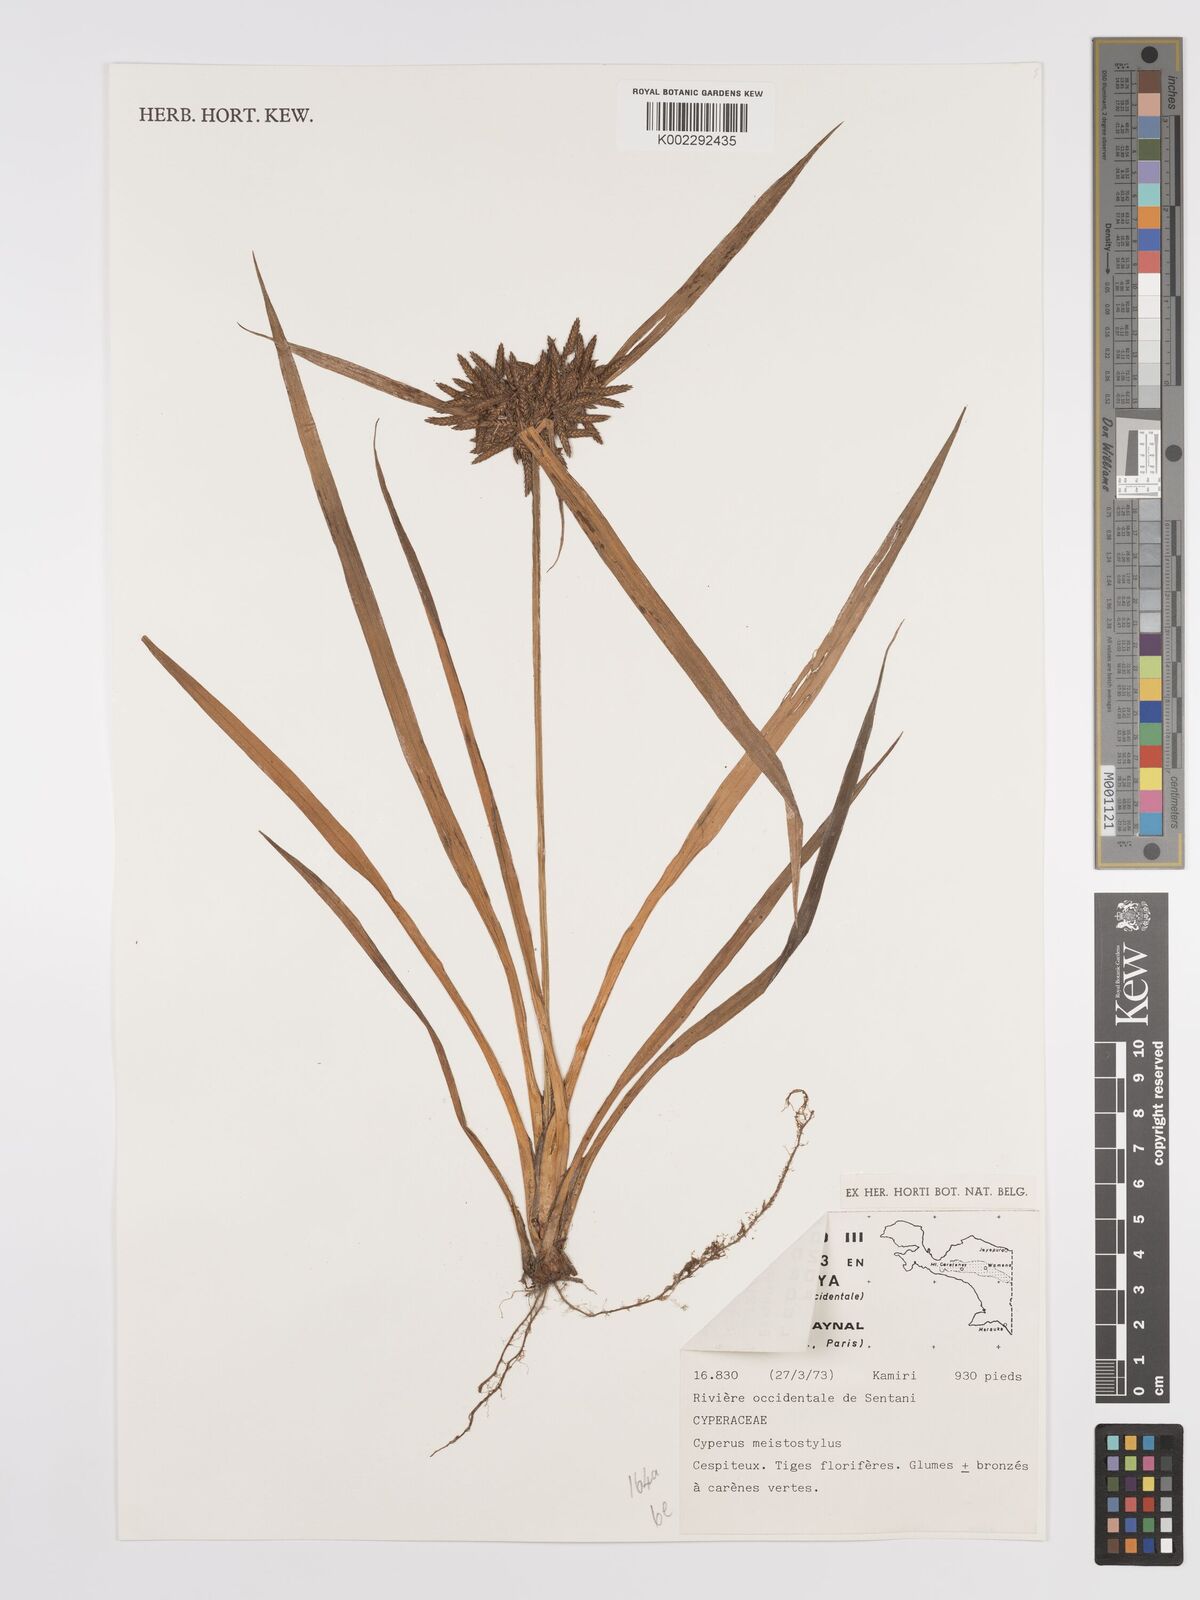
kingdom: Plantae
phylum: Tracheophyta
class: Liliopsida
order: Poales
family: Cyperaceae
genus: Cyperus
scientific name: Cyperus meistostylus
